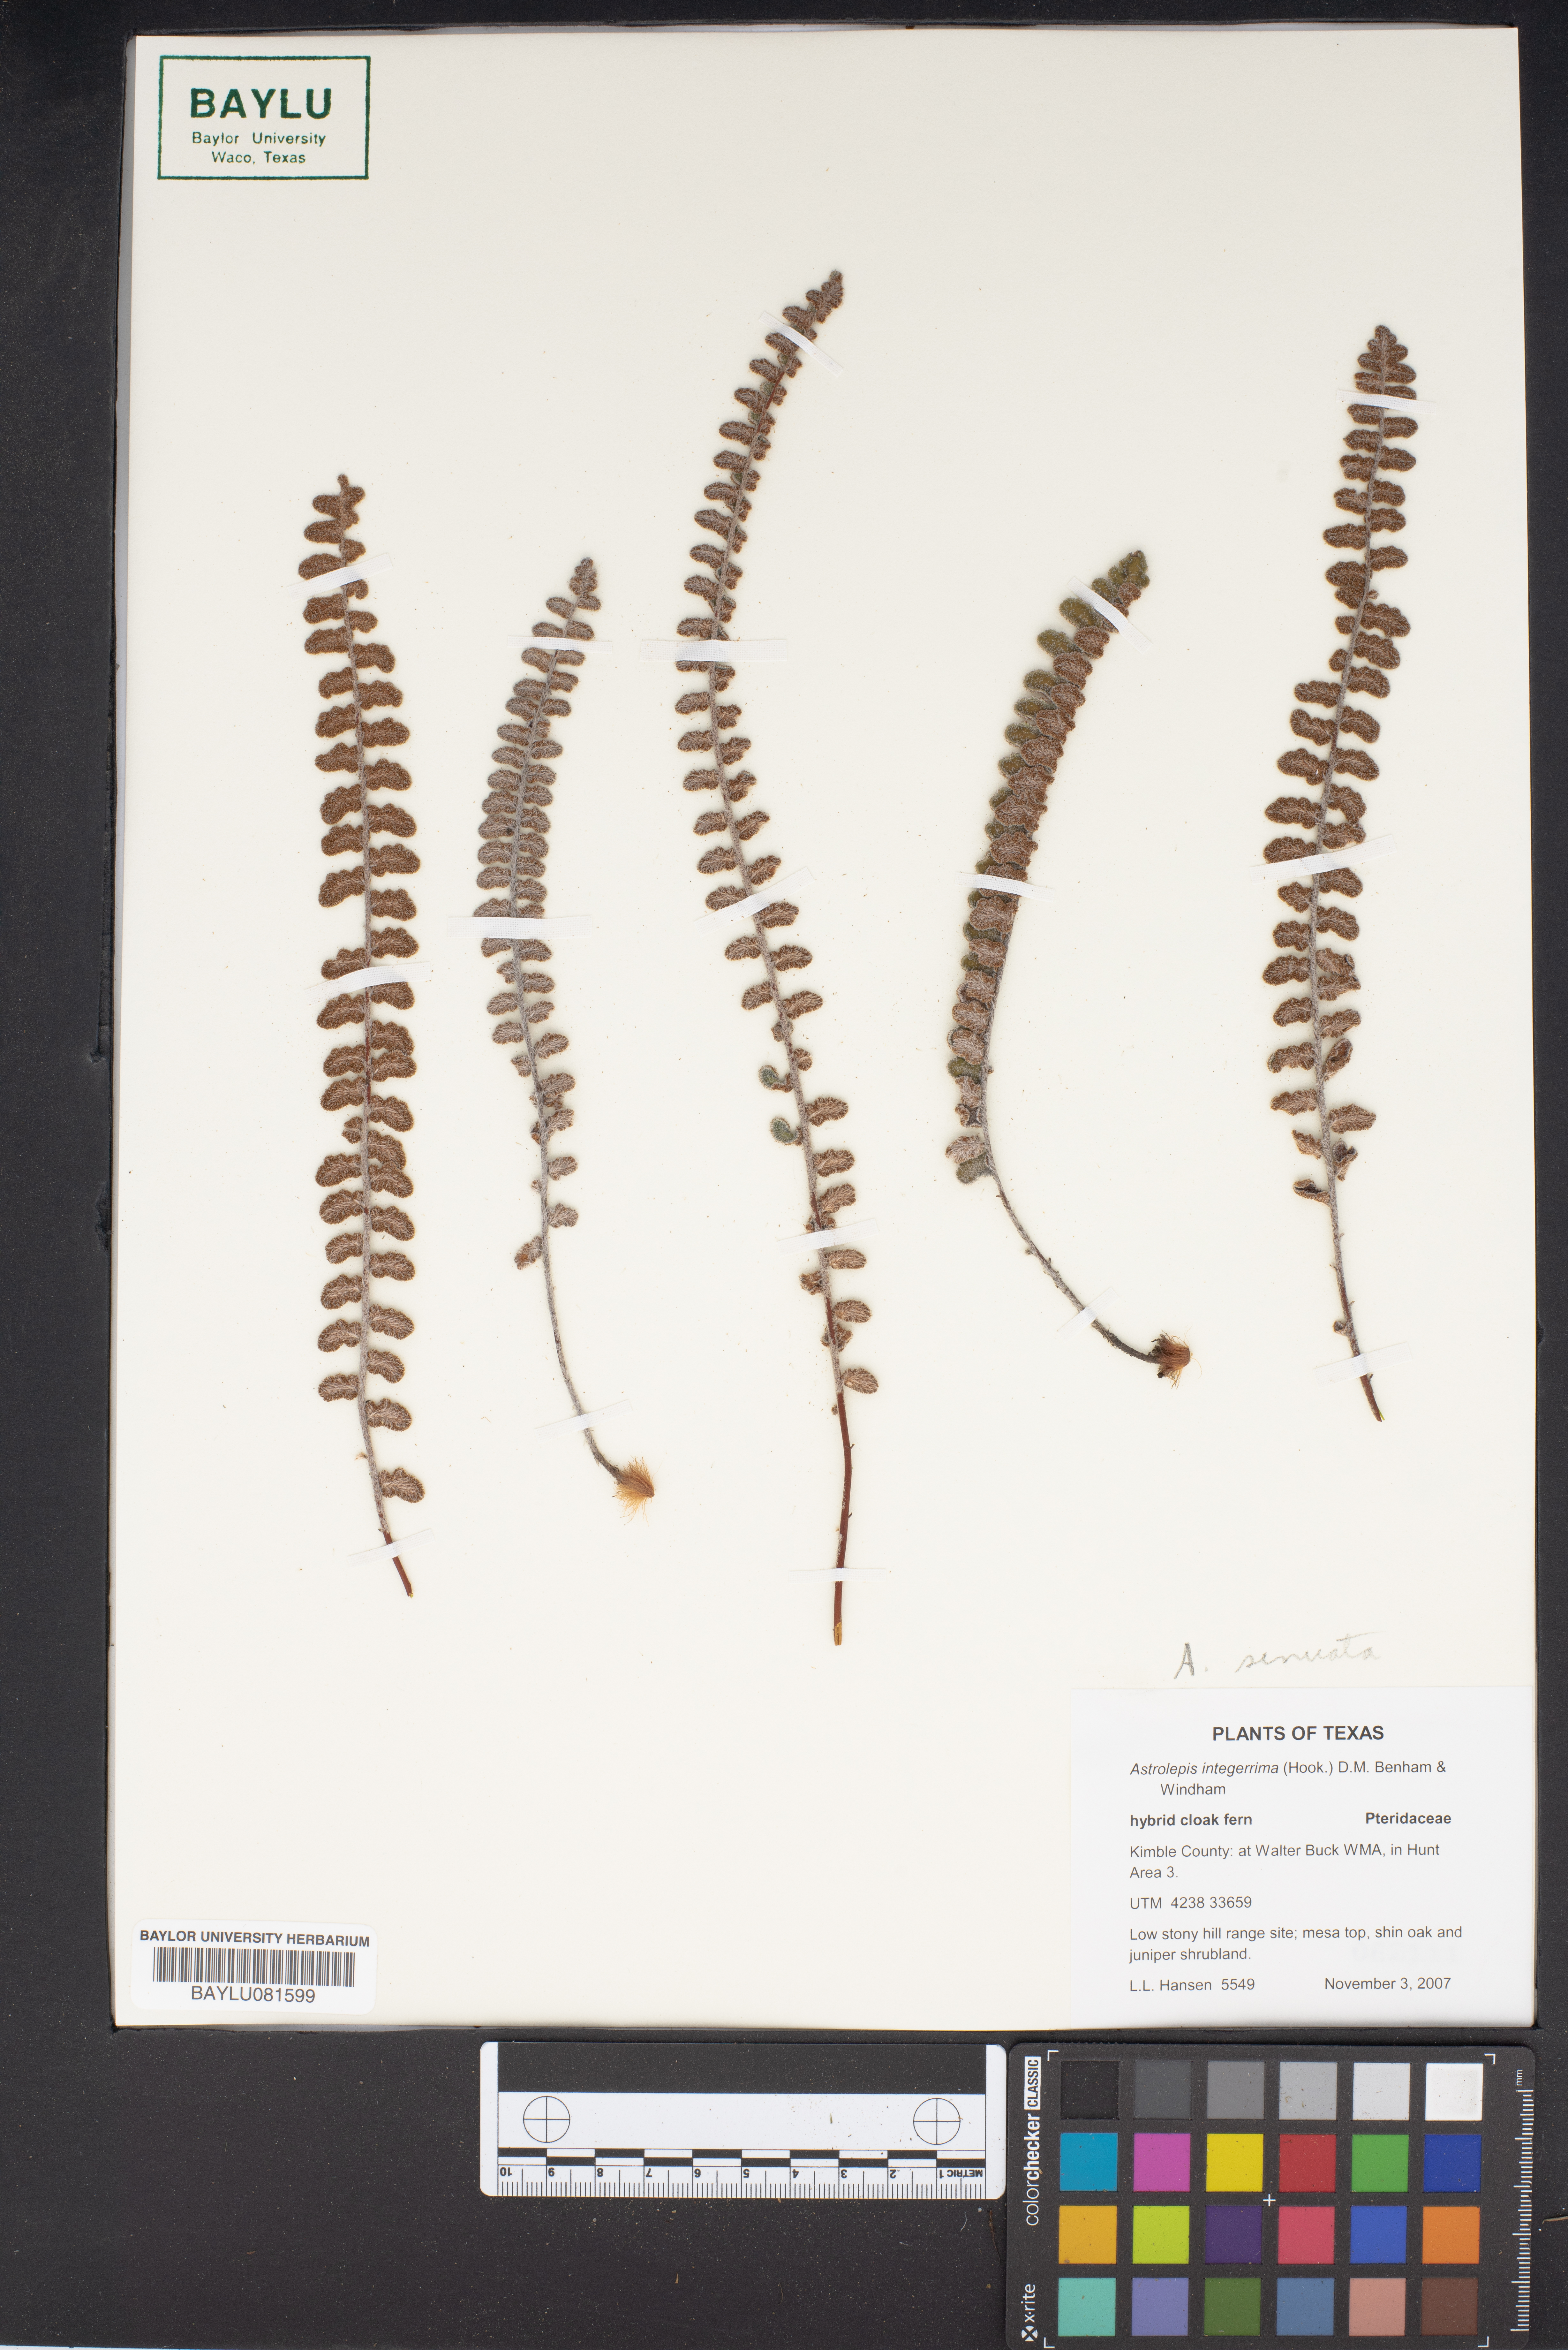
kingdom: Plantae
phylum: Tracheophyta
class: Polypodiopsida
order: Polypodiales
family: Pteridaceae
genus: Astrolepis
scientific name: Astrolepis integerrima
